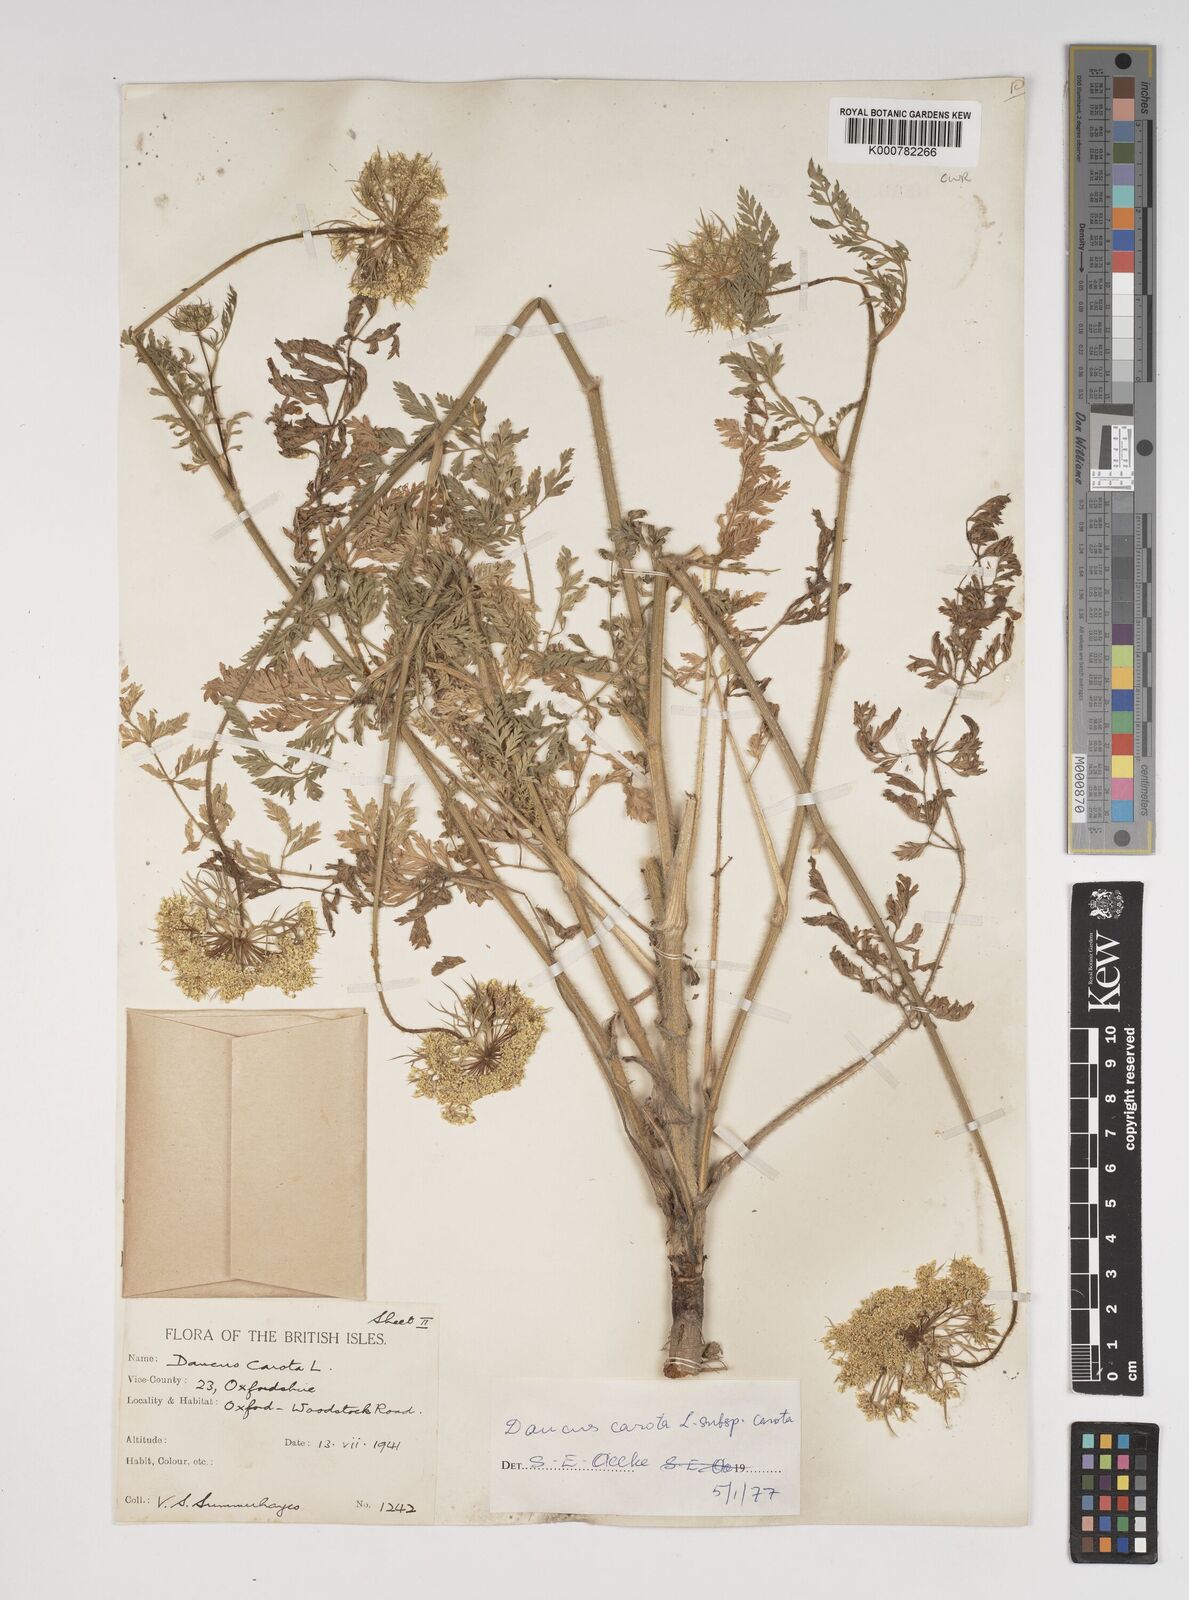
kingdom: Plantae
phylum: Tracheophyta
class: Magnoliopsida
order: Apiales
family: Apiaceae
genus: Daucus
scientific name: Daucus carota
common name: Wild carrot
